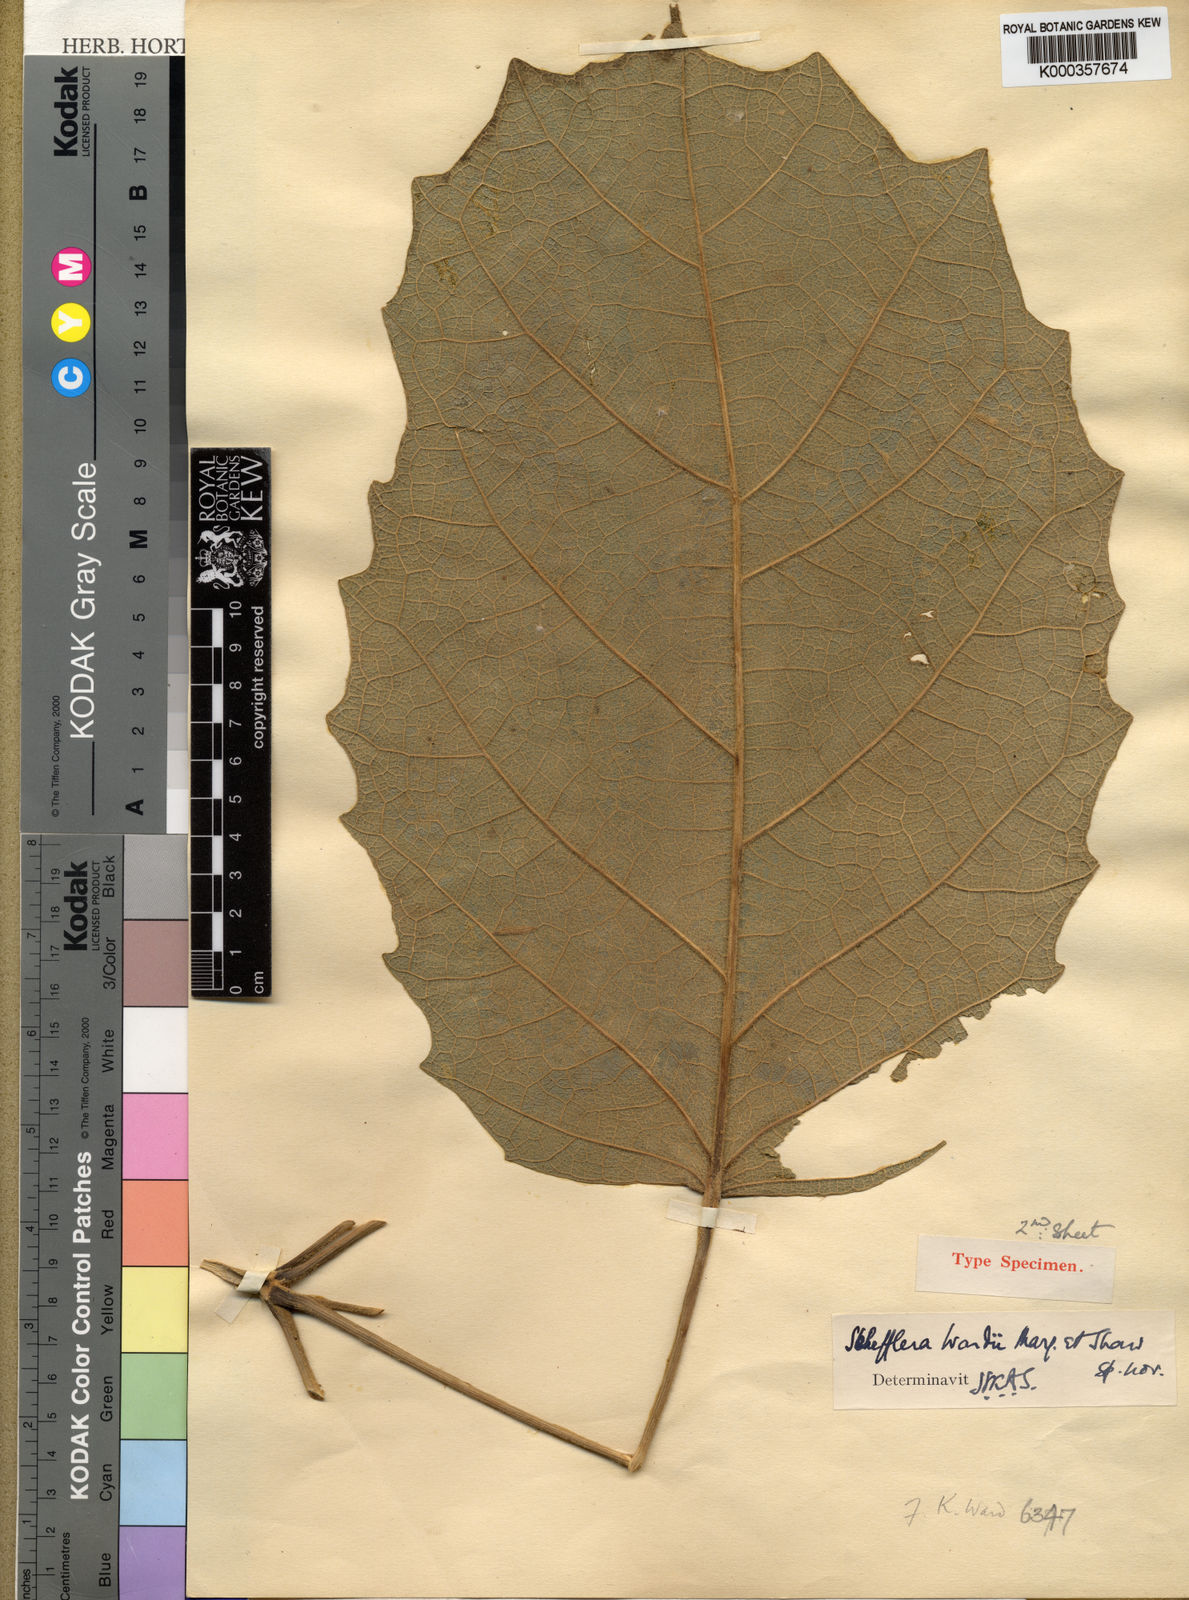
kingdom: Plantae
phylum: Tracheophyta
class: Magnoliopsida
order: Apiales
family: Araliaceae
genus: Heptapleurum
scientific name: Heptapleurum wardii
